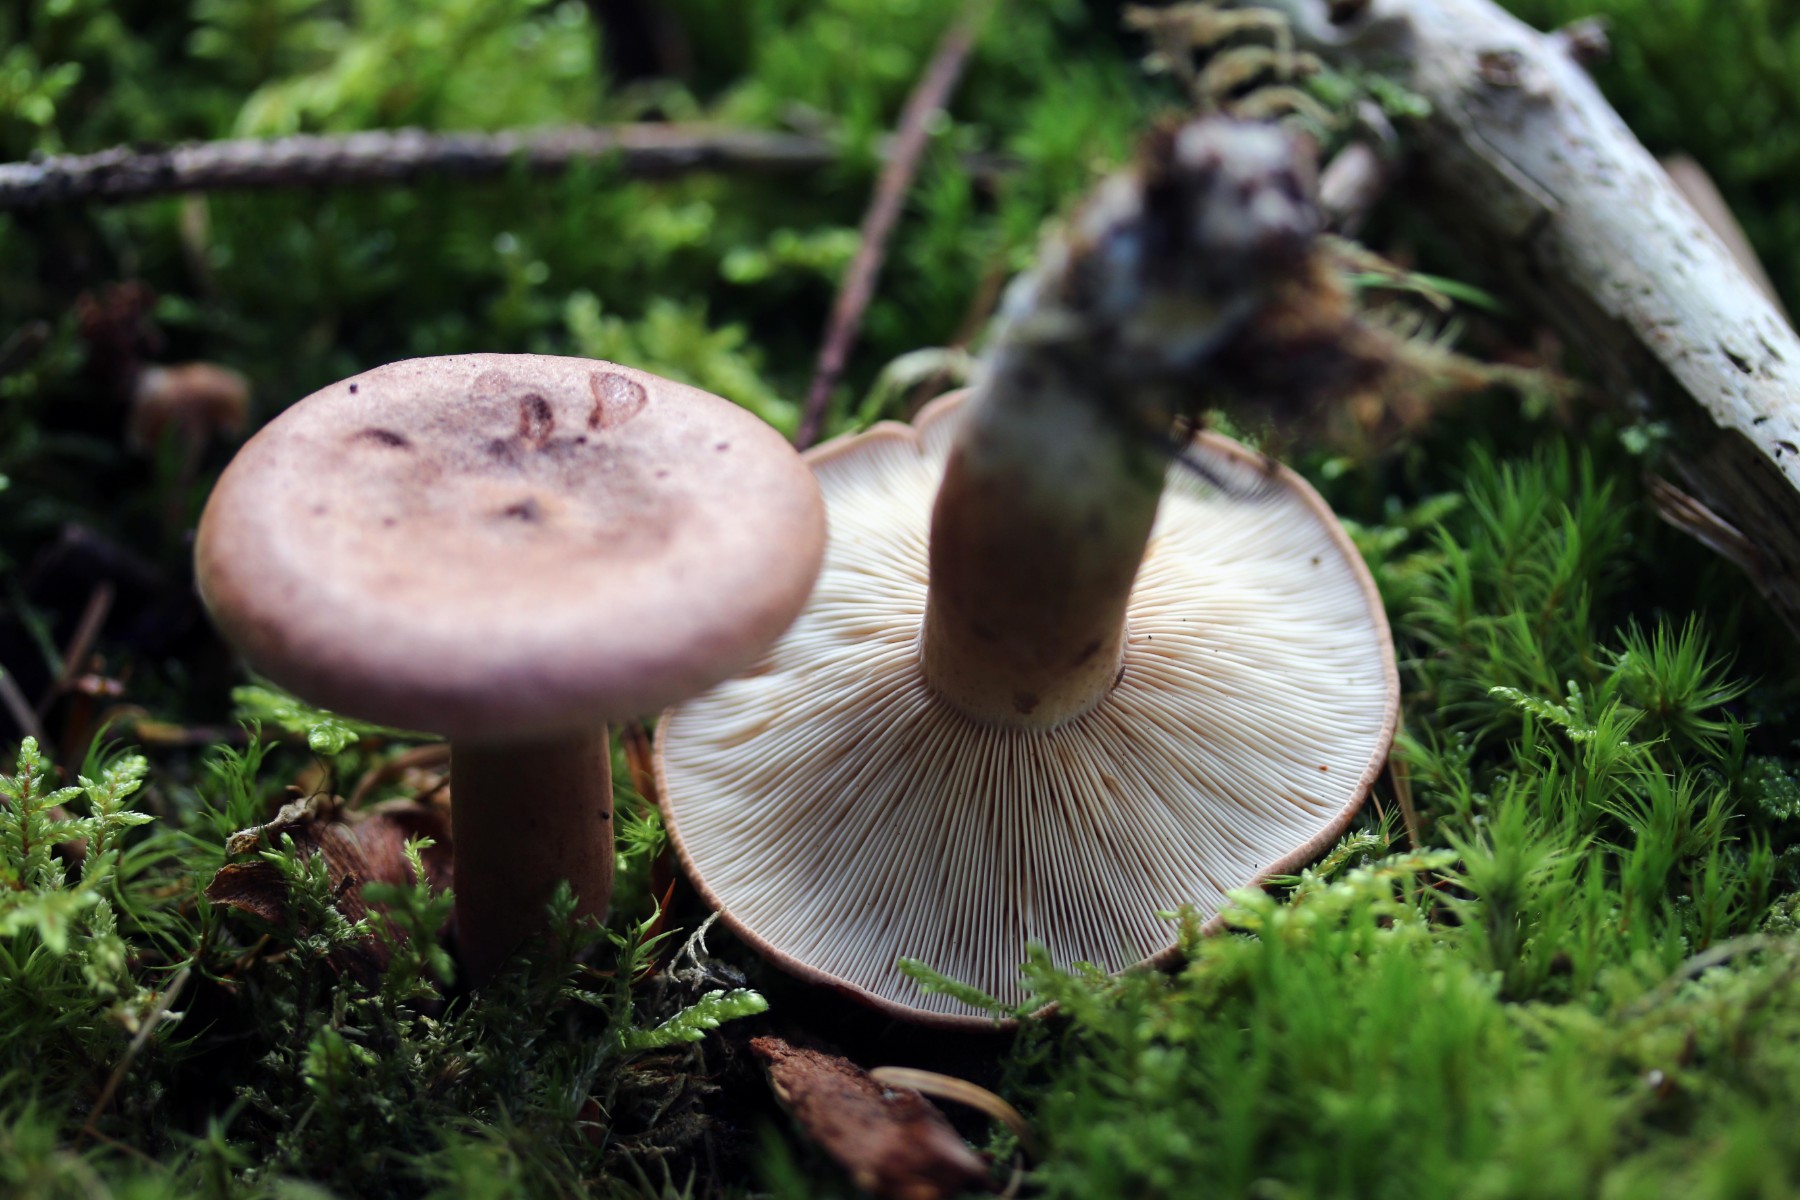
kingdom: Fungi
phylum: Basidiomycota
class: Agaricomycetes
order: Russulales
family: Russulaceae
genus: Lactarius
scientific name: Lactarius rufus
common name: rødbrun mælkehat
